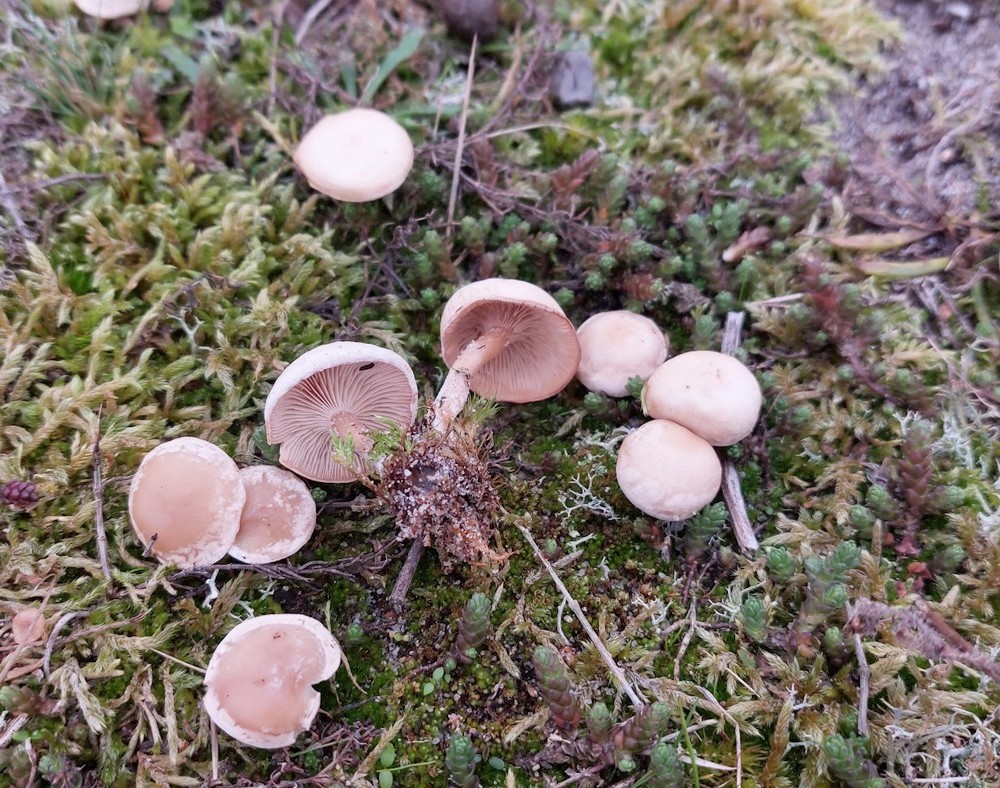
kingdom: Fungi
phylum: Basidiomycota
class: Agaricomycetes
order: Agaricales
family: Entolomataceae
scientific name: Entolomataceae
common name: rødbladfamilien
